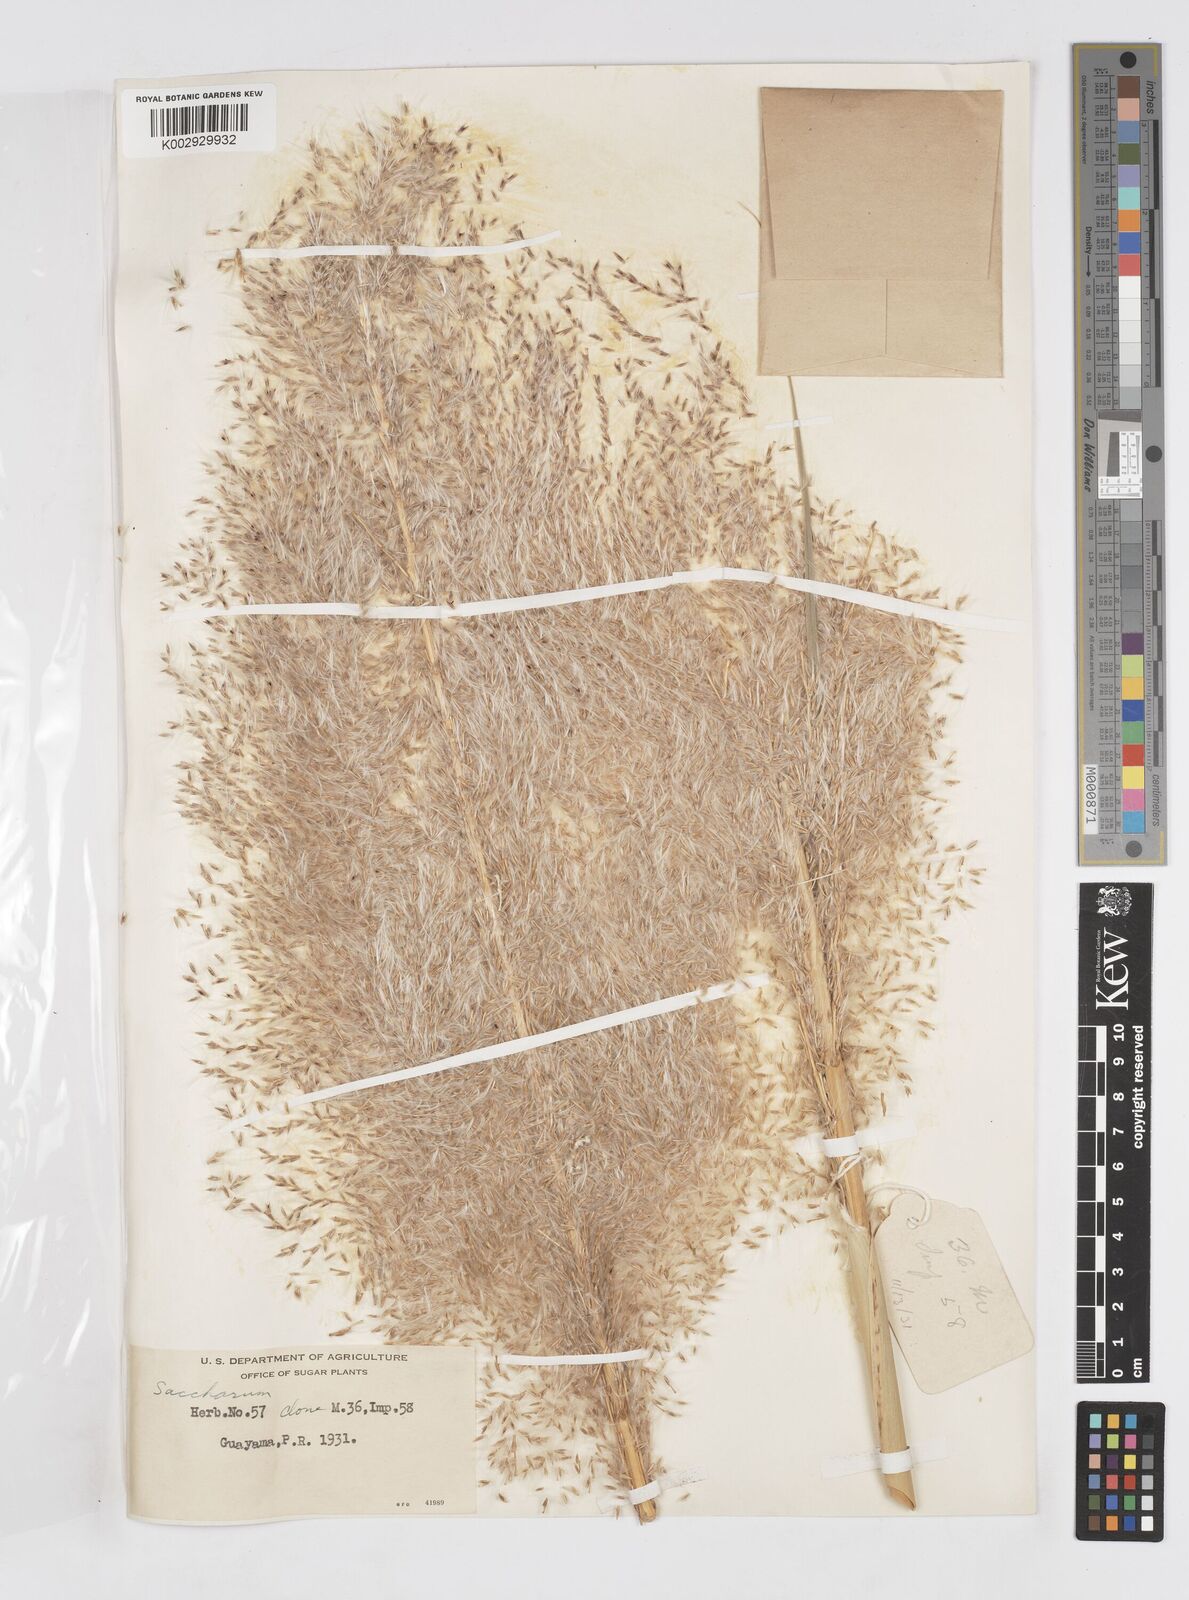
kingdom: Plantae
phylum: Tracheophyta
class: Liliopsida
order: Poales
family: Poaceae
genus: Saccharum
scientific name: Saccharum officinarum
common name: Sugarcane
